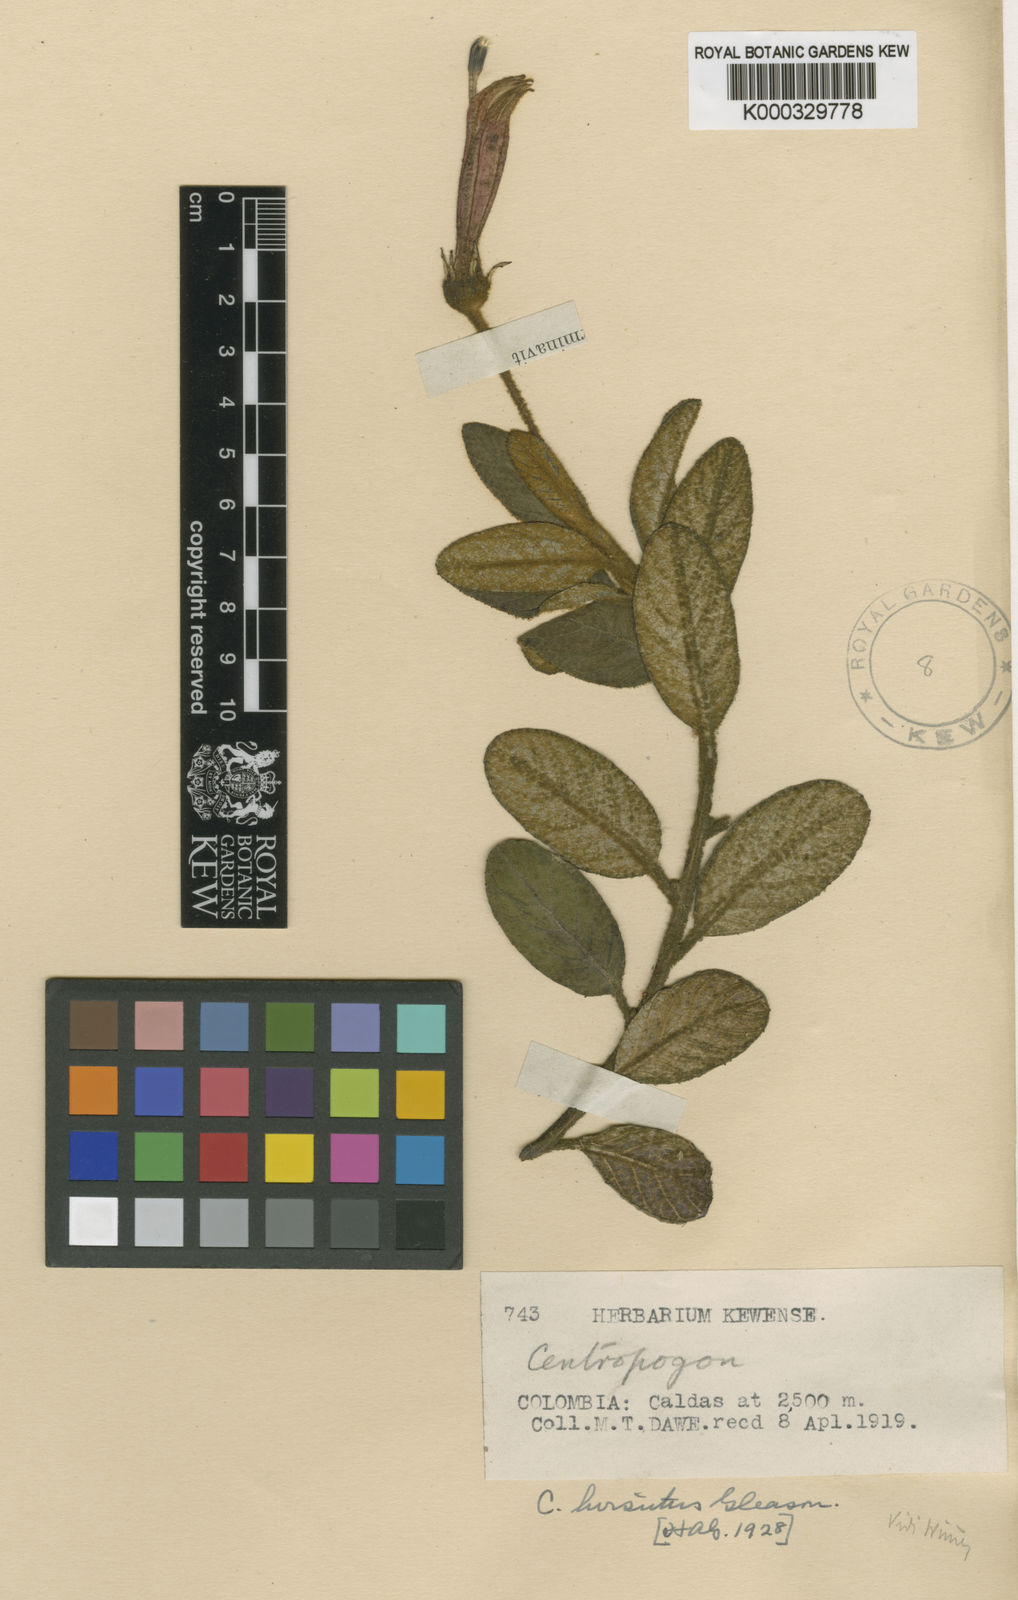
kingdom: Plantae
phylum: Tracheophyta
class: Magnoliopsida
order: Asterales
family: Campanulaceae
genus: Centropogon
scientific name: Centropogon hirsutus
